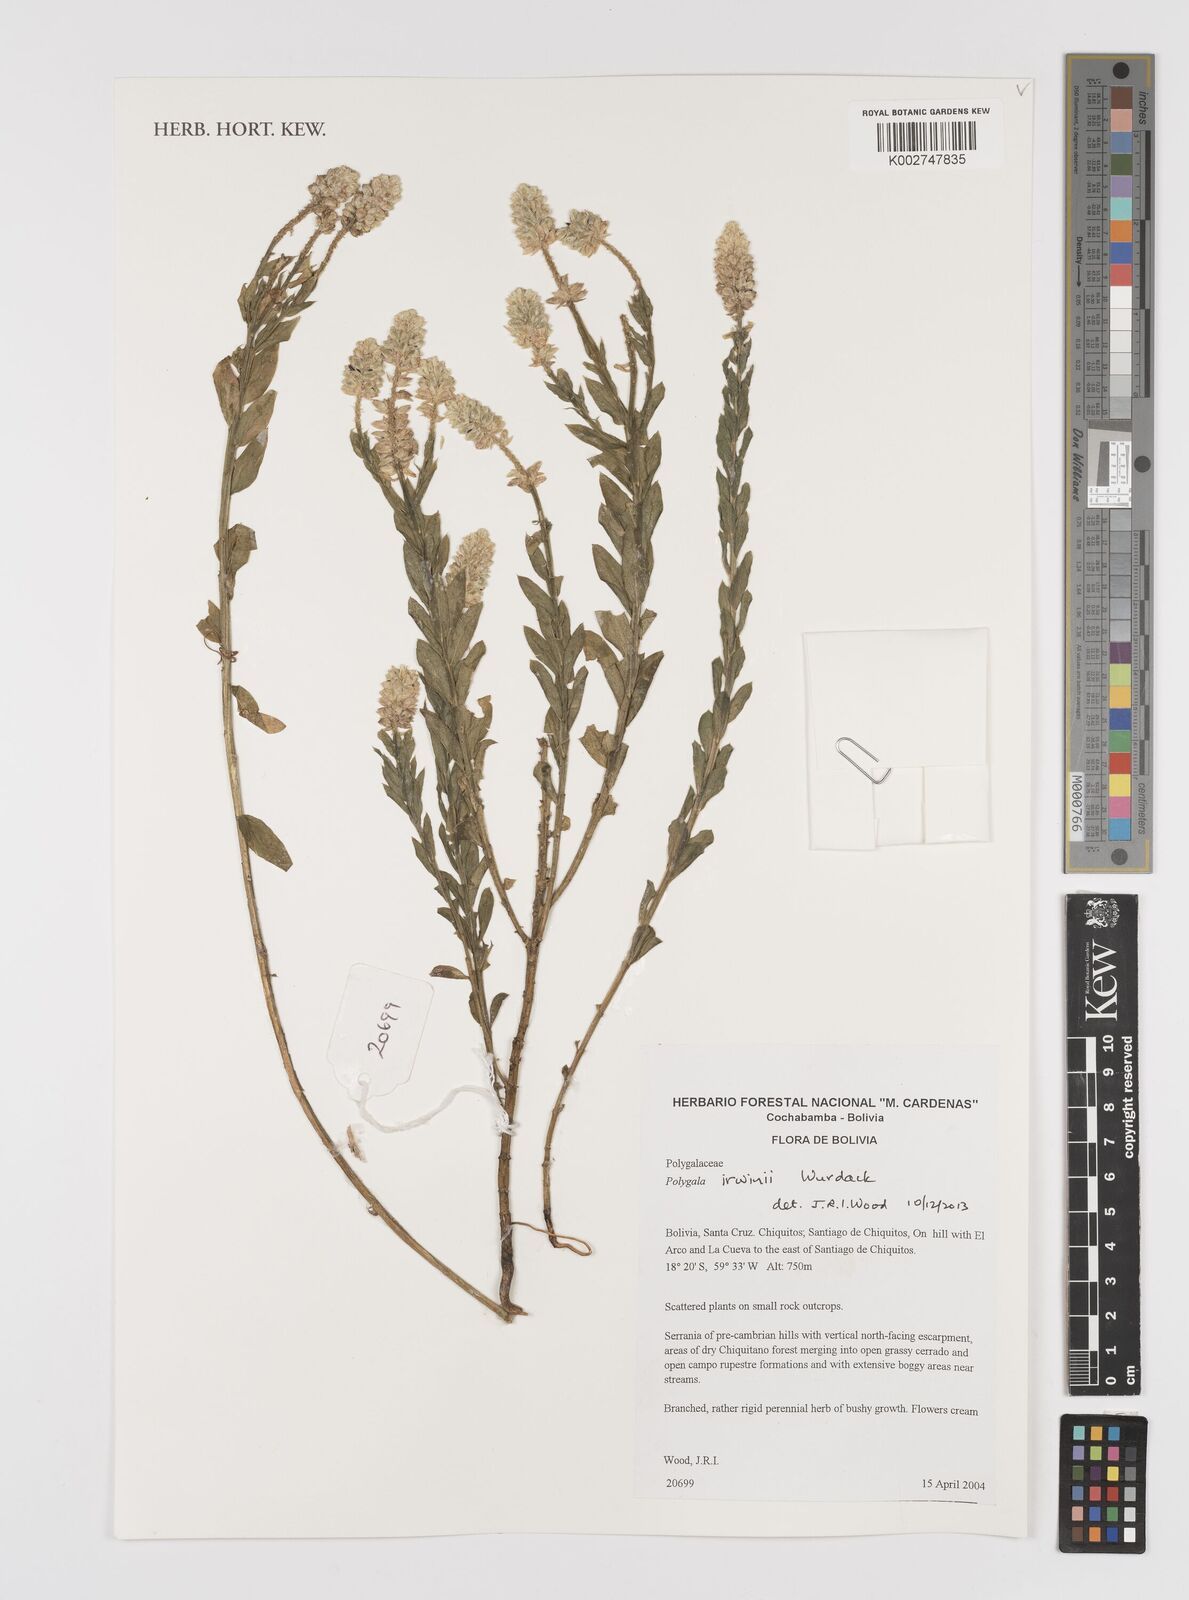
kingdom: Plantae
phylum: Tracheophyta
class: Magnoliopsida
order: Fabales
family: Polygalaceae
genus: Polygala
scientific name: Polygala irwinii
